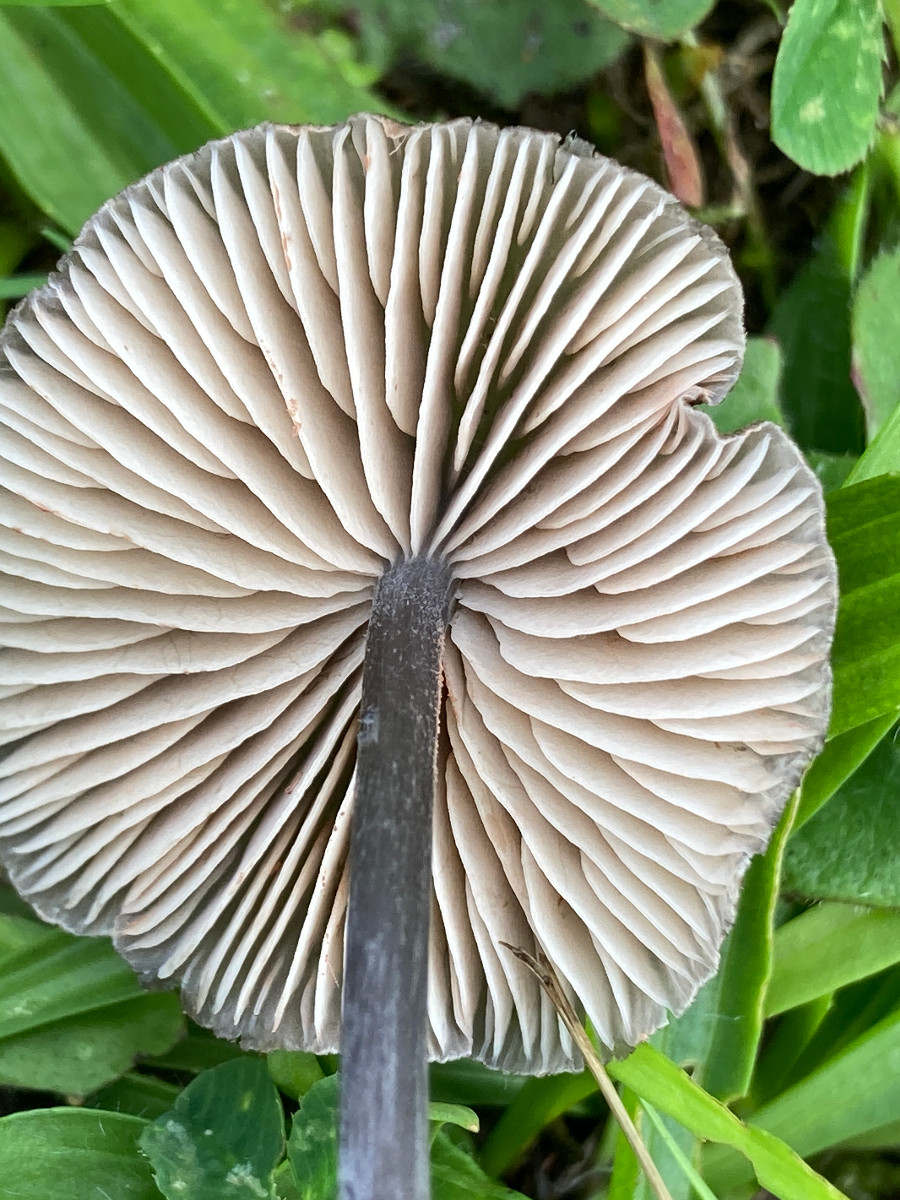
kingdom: Fungi
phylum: Basidiomycota
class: Agaricomycetes
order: Agaricales
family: Entolomataceae
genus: Entoloma
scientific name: Entoloma
